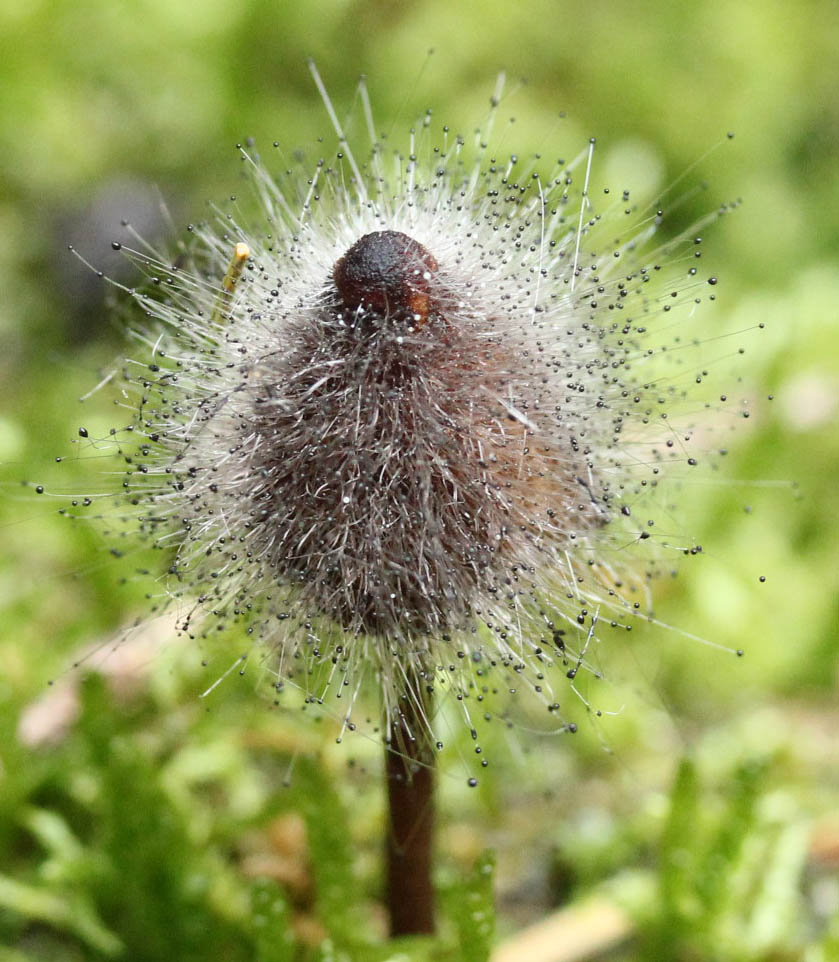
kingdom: Fungi
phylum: Basidiomycota
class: Agaricomycetes
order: Agaricales
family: Mycenaceae
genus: Mycena
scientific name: Mycena zephirus
